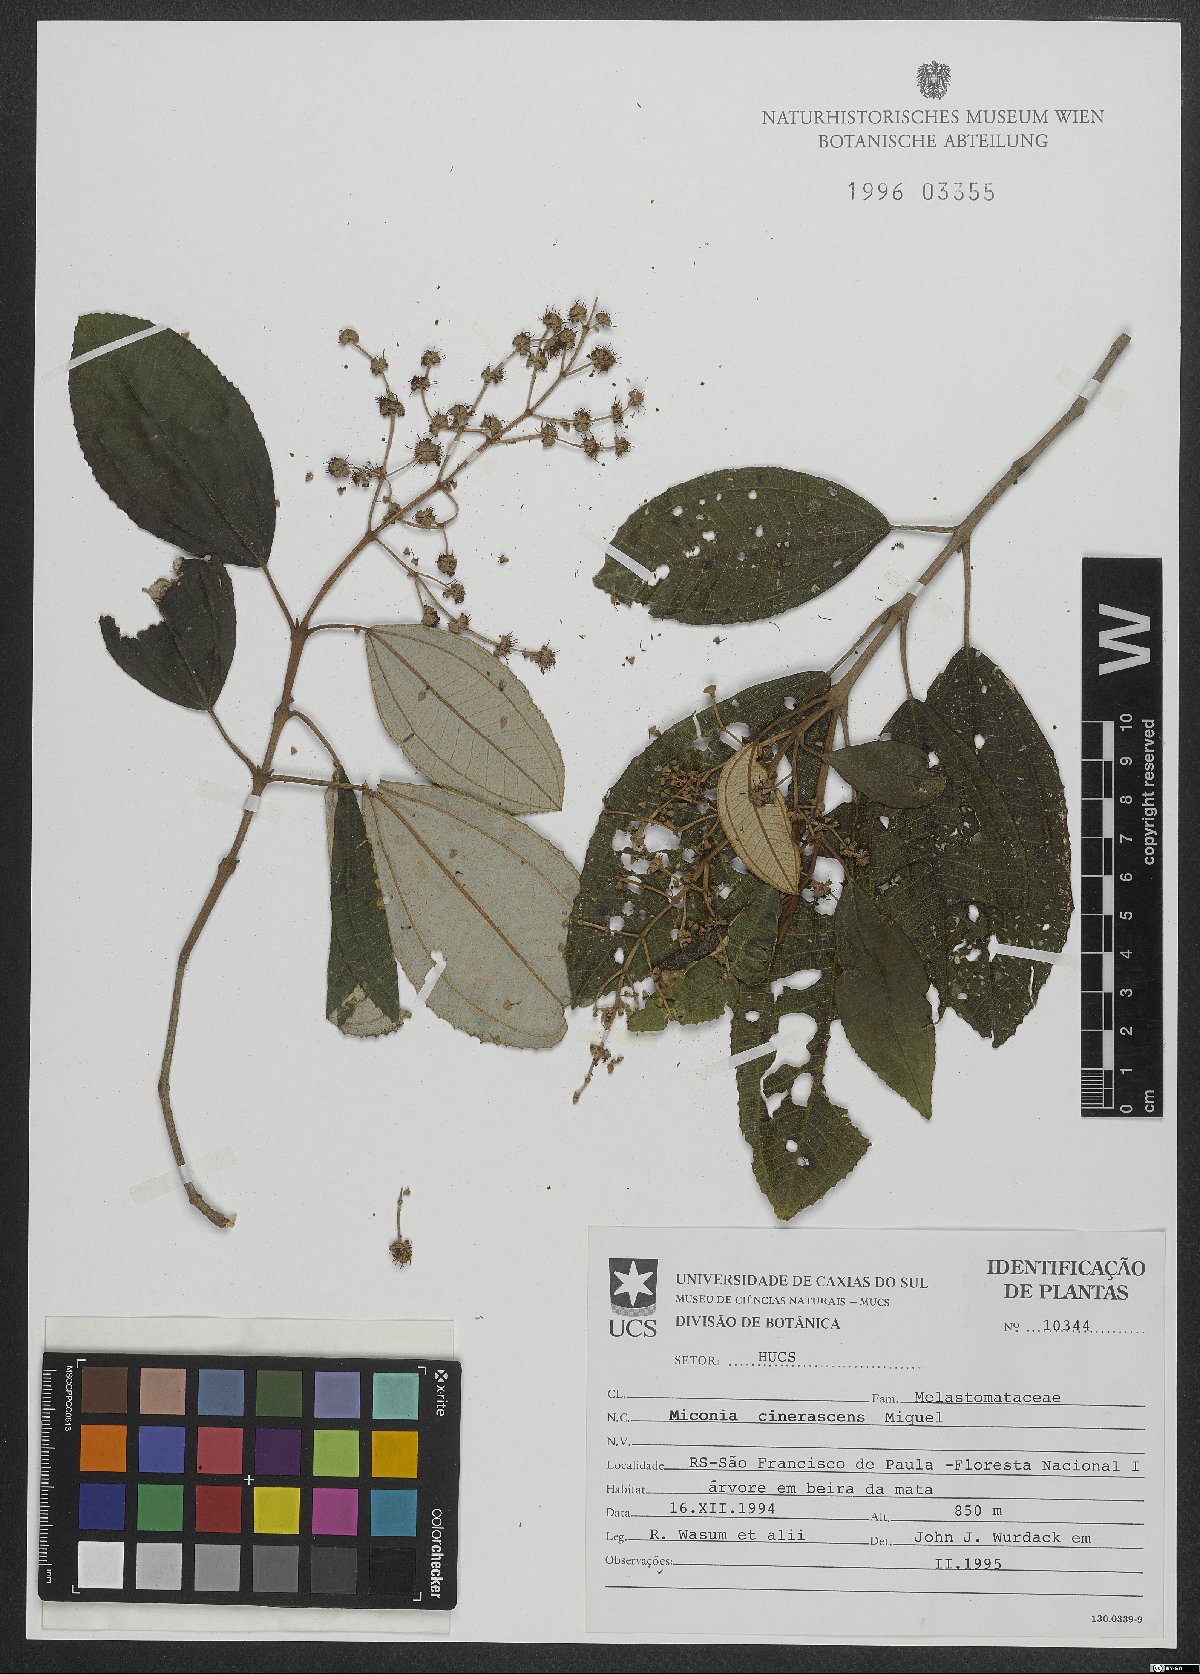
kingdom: Plantae
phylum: Tracheophyta
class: Magnoliopsida
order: Myrtales
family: Melastomataceae
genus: Miconia
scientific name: Miconia cinerascens
